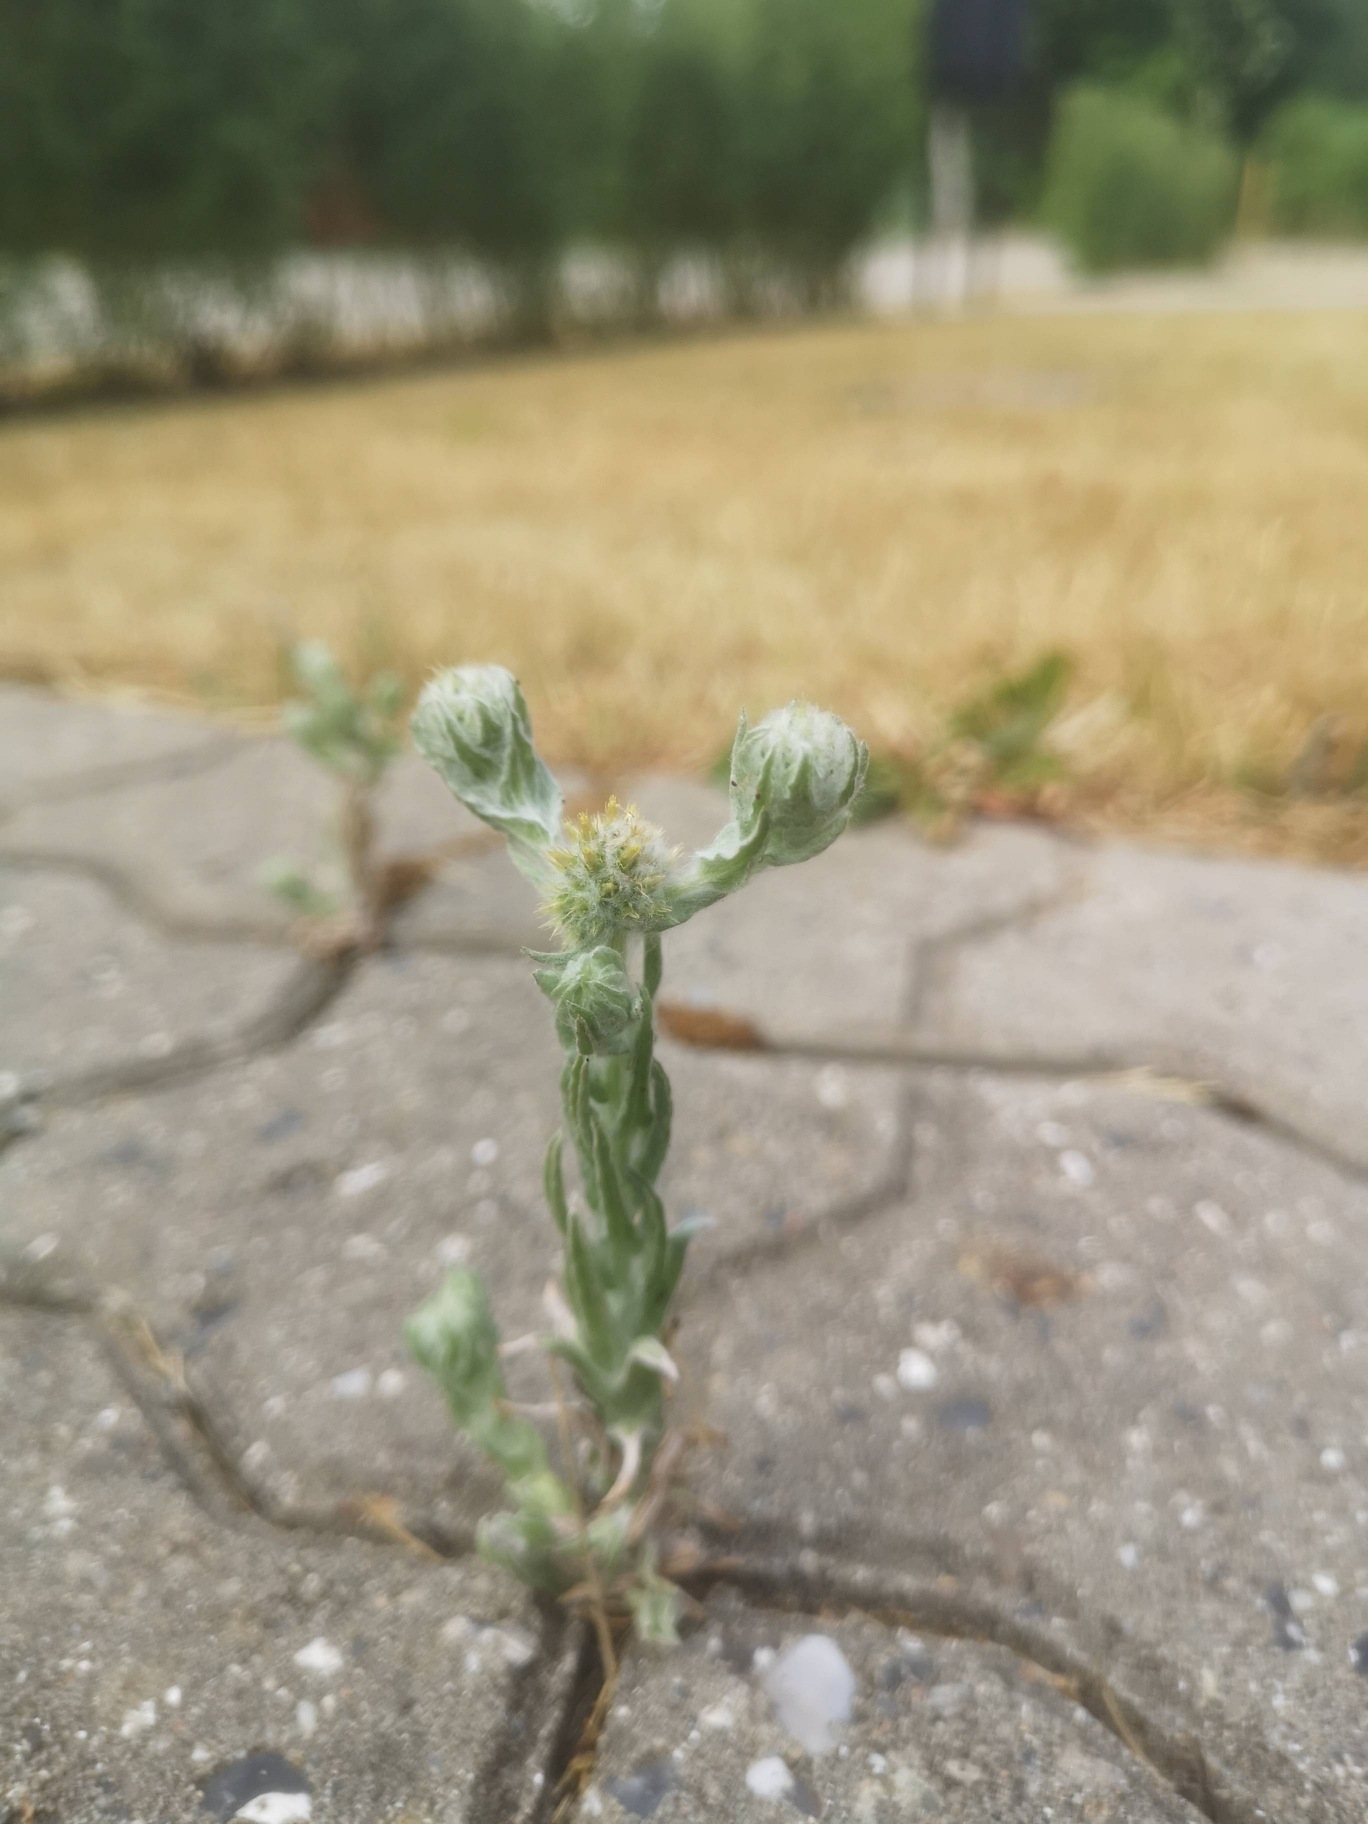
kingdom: Plantae
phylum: Tracheophyta
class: Magnoliopsida
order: Asterales
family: Asteraceae
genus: Filago
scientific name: Filago germanica
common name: Kugle-museurt
